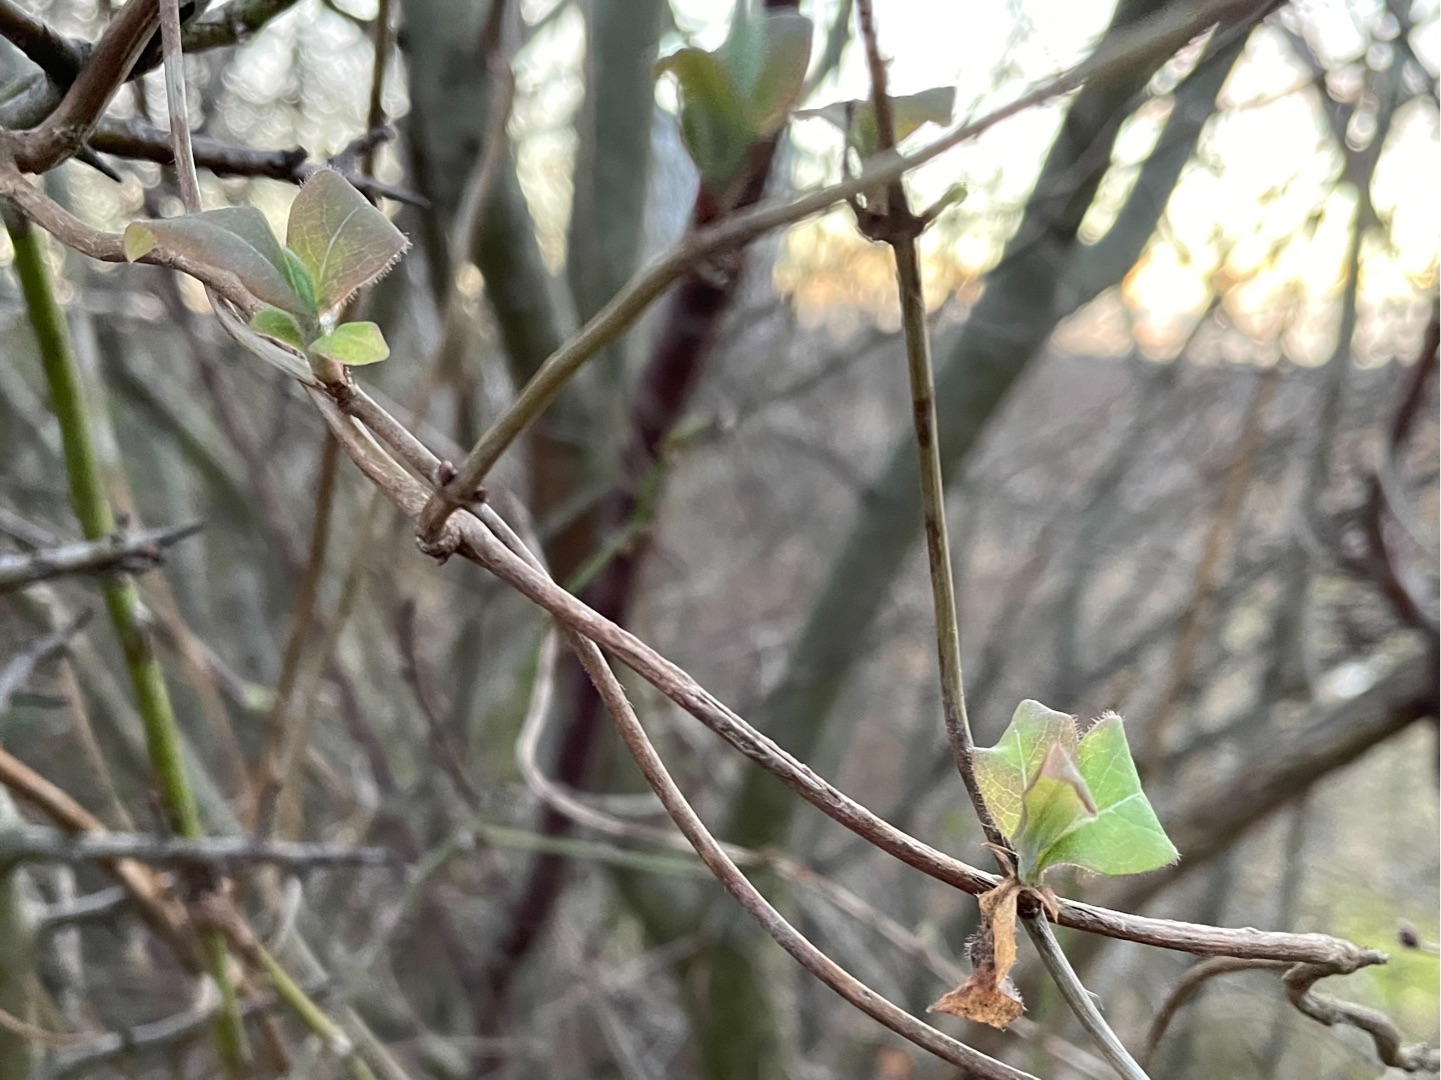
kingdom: Plantae
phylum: Tracheophyta
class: Magnoliopsida
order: Dipsacales
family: Caprifoliaceae
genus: Lonicera
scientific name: Lonicera periclymenum
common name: Almindelig gedeblad
